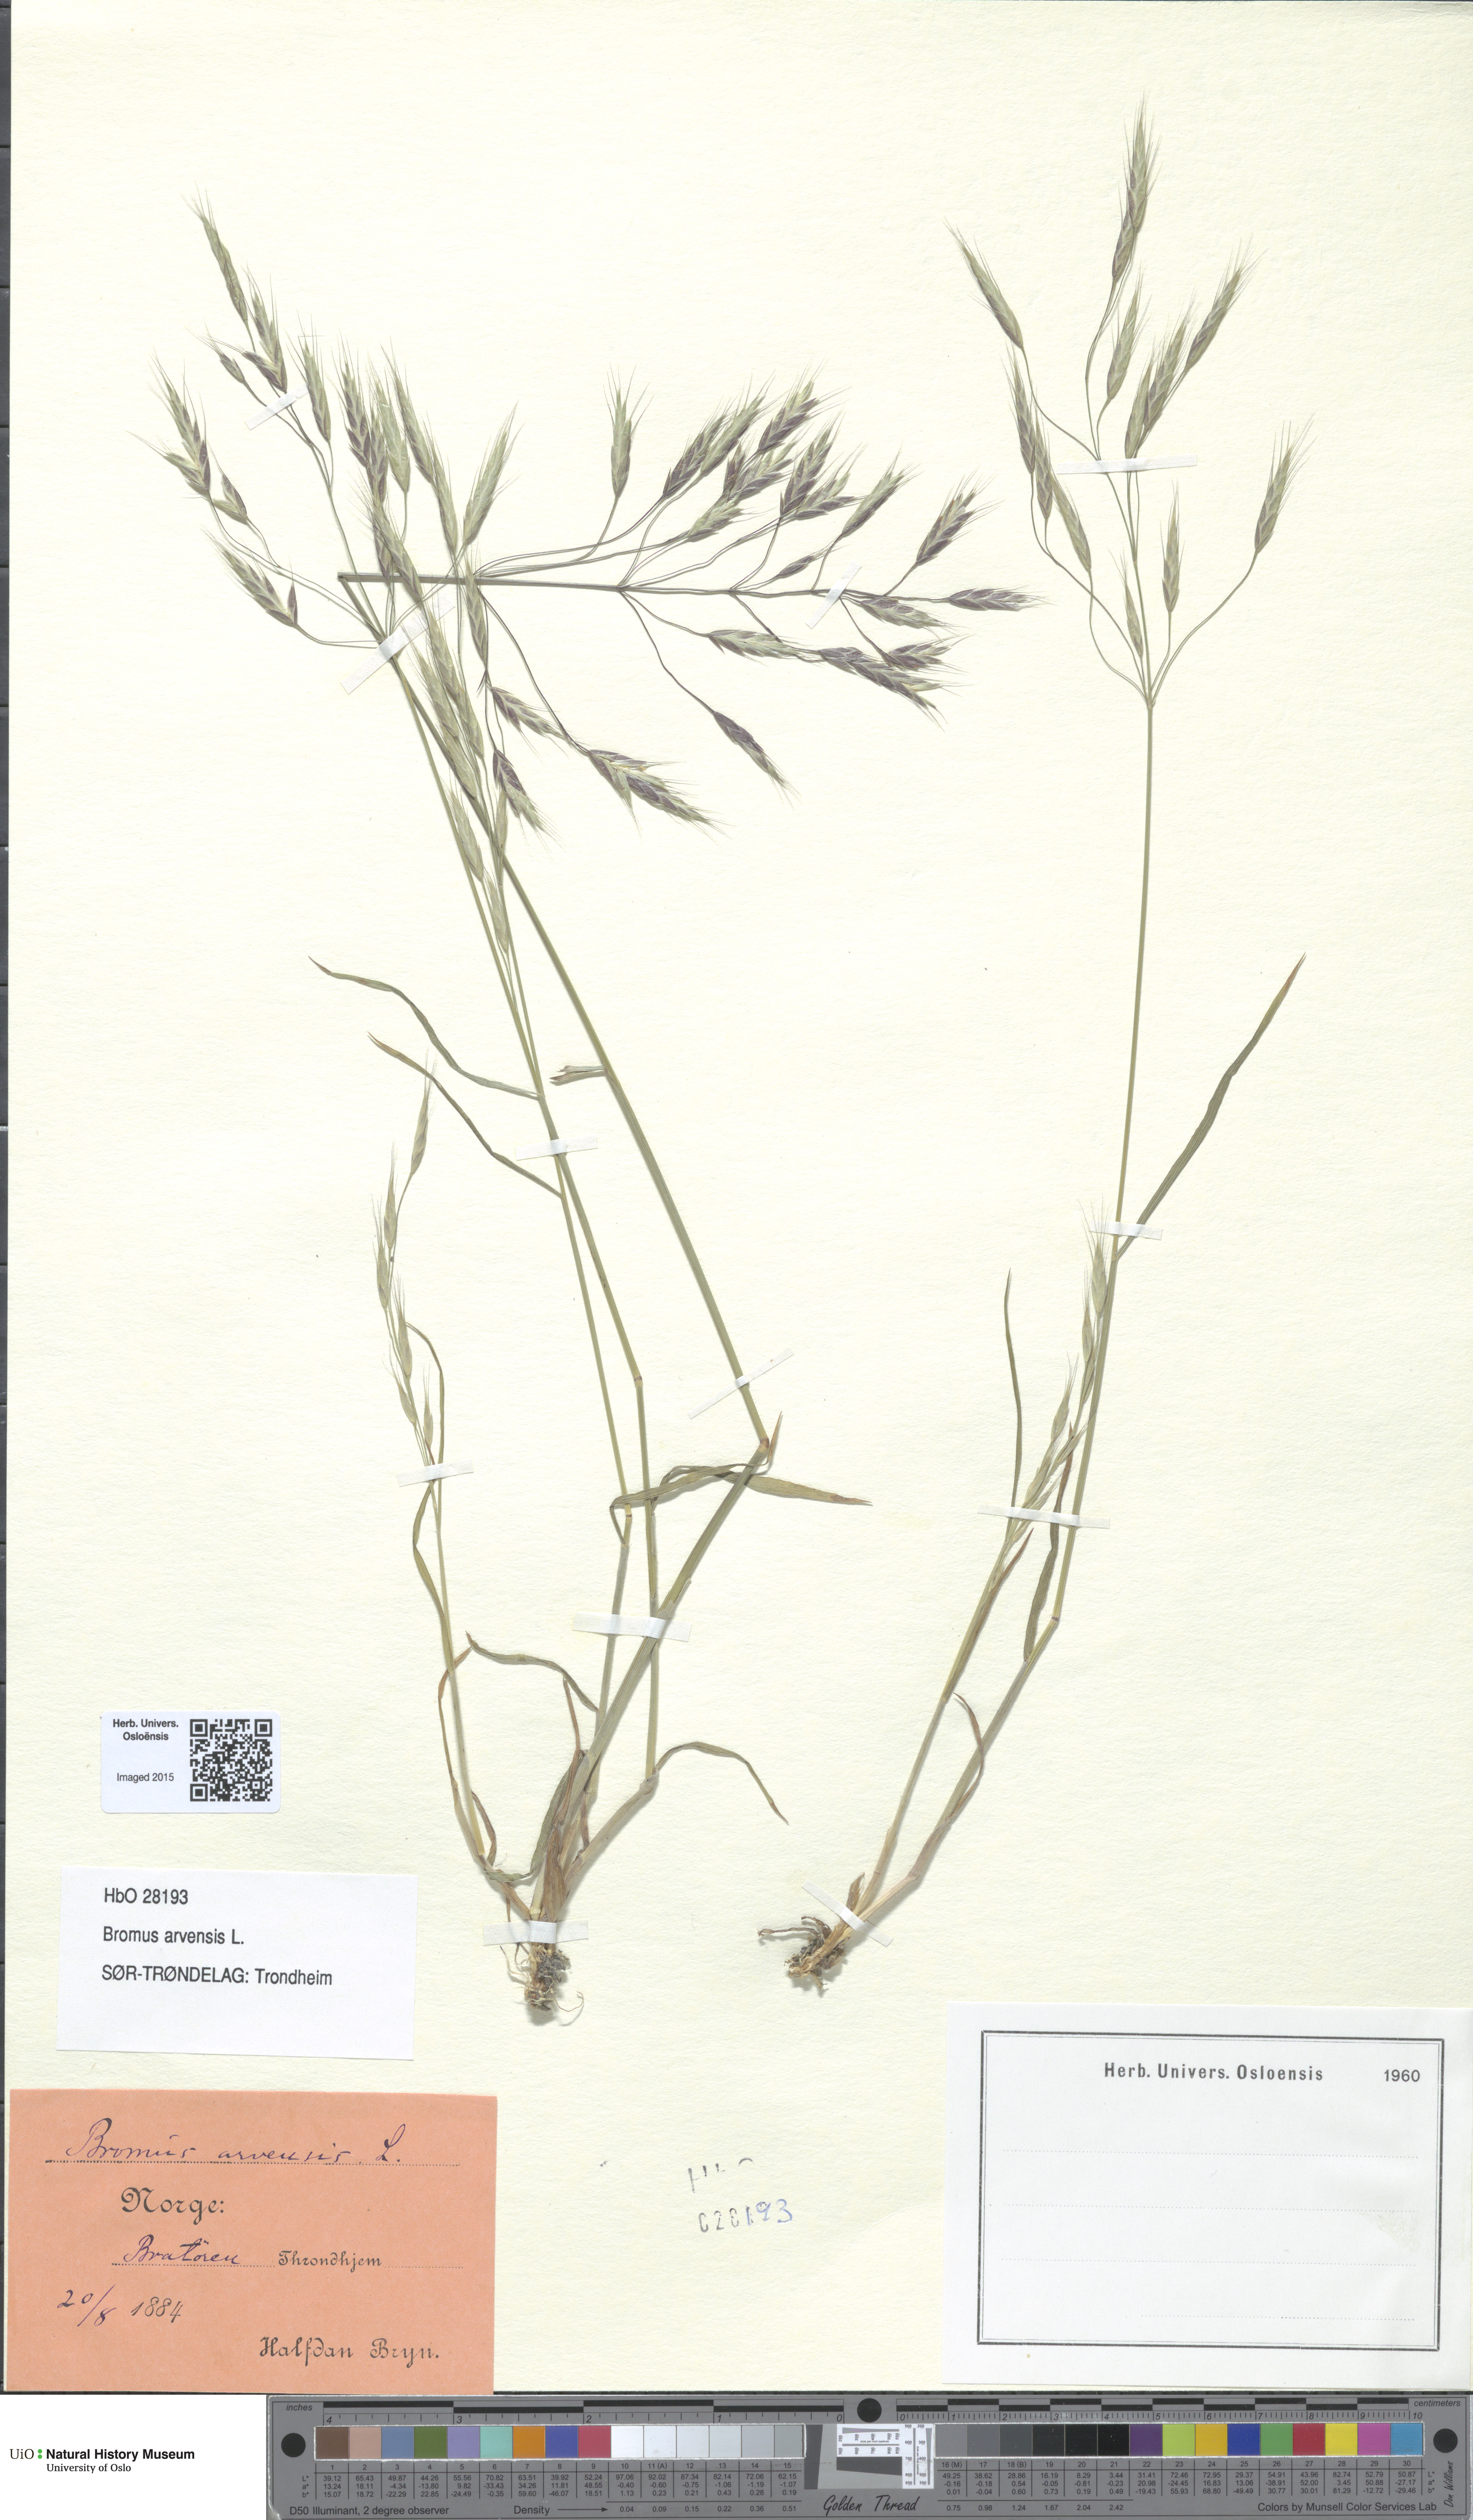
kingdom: Plantae
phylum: Tracheophyta
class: Liliopsida
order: Poales
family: Poaceae
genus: Bromus
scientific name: Bromus arvensis
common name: Field brome
